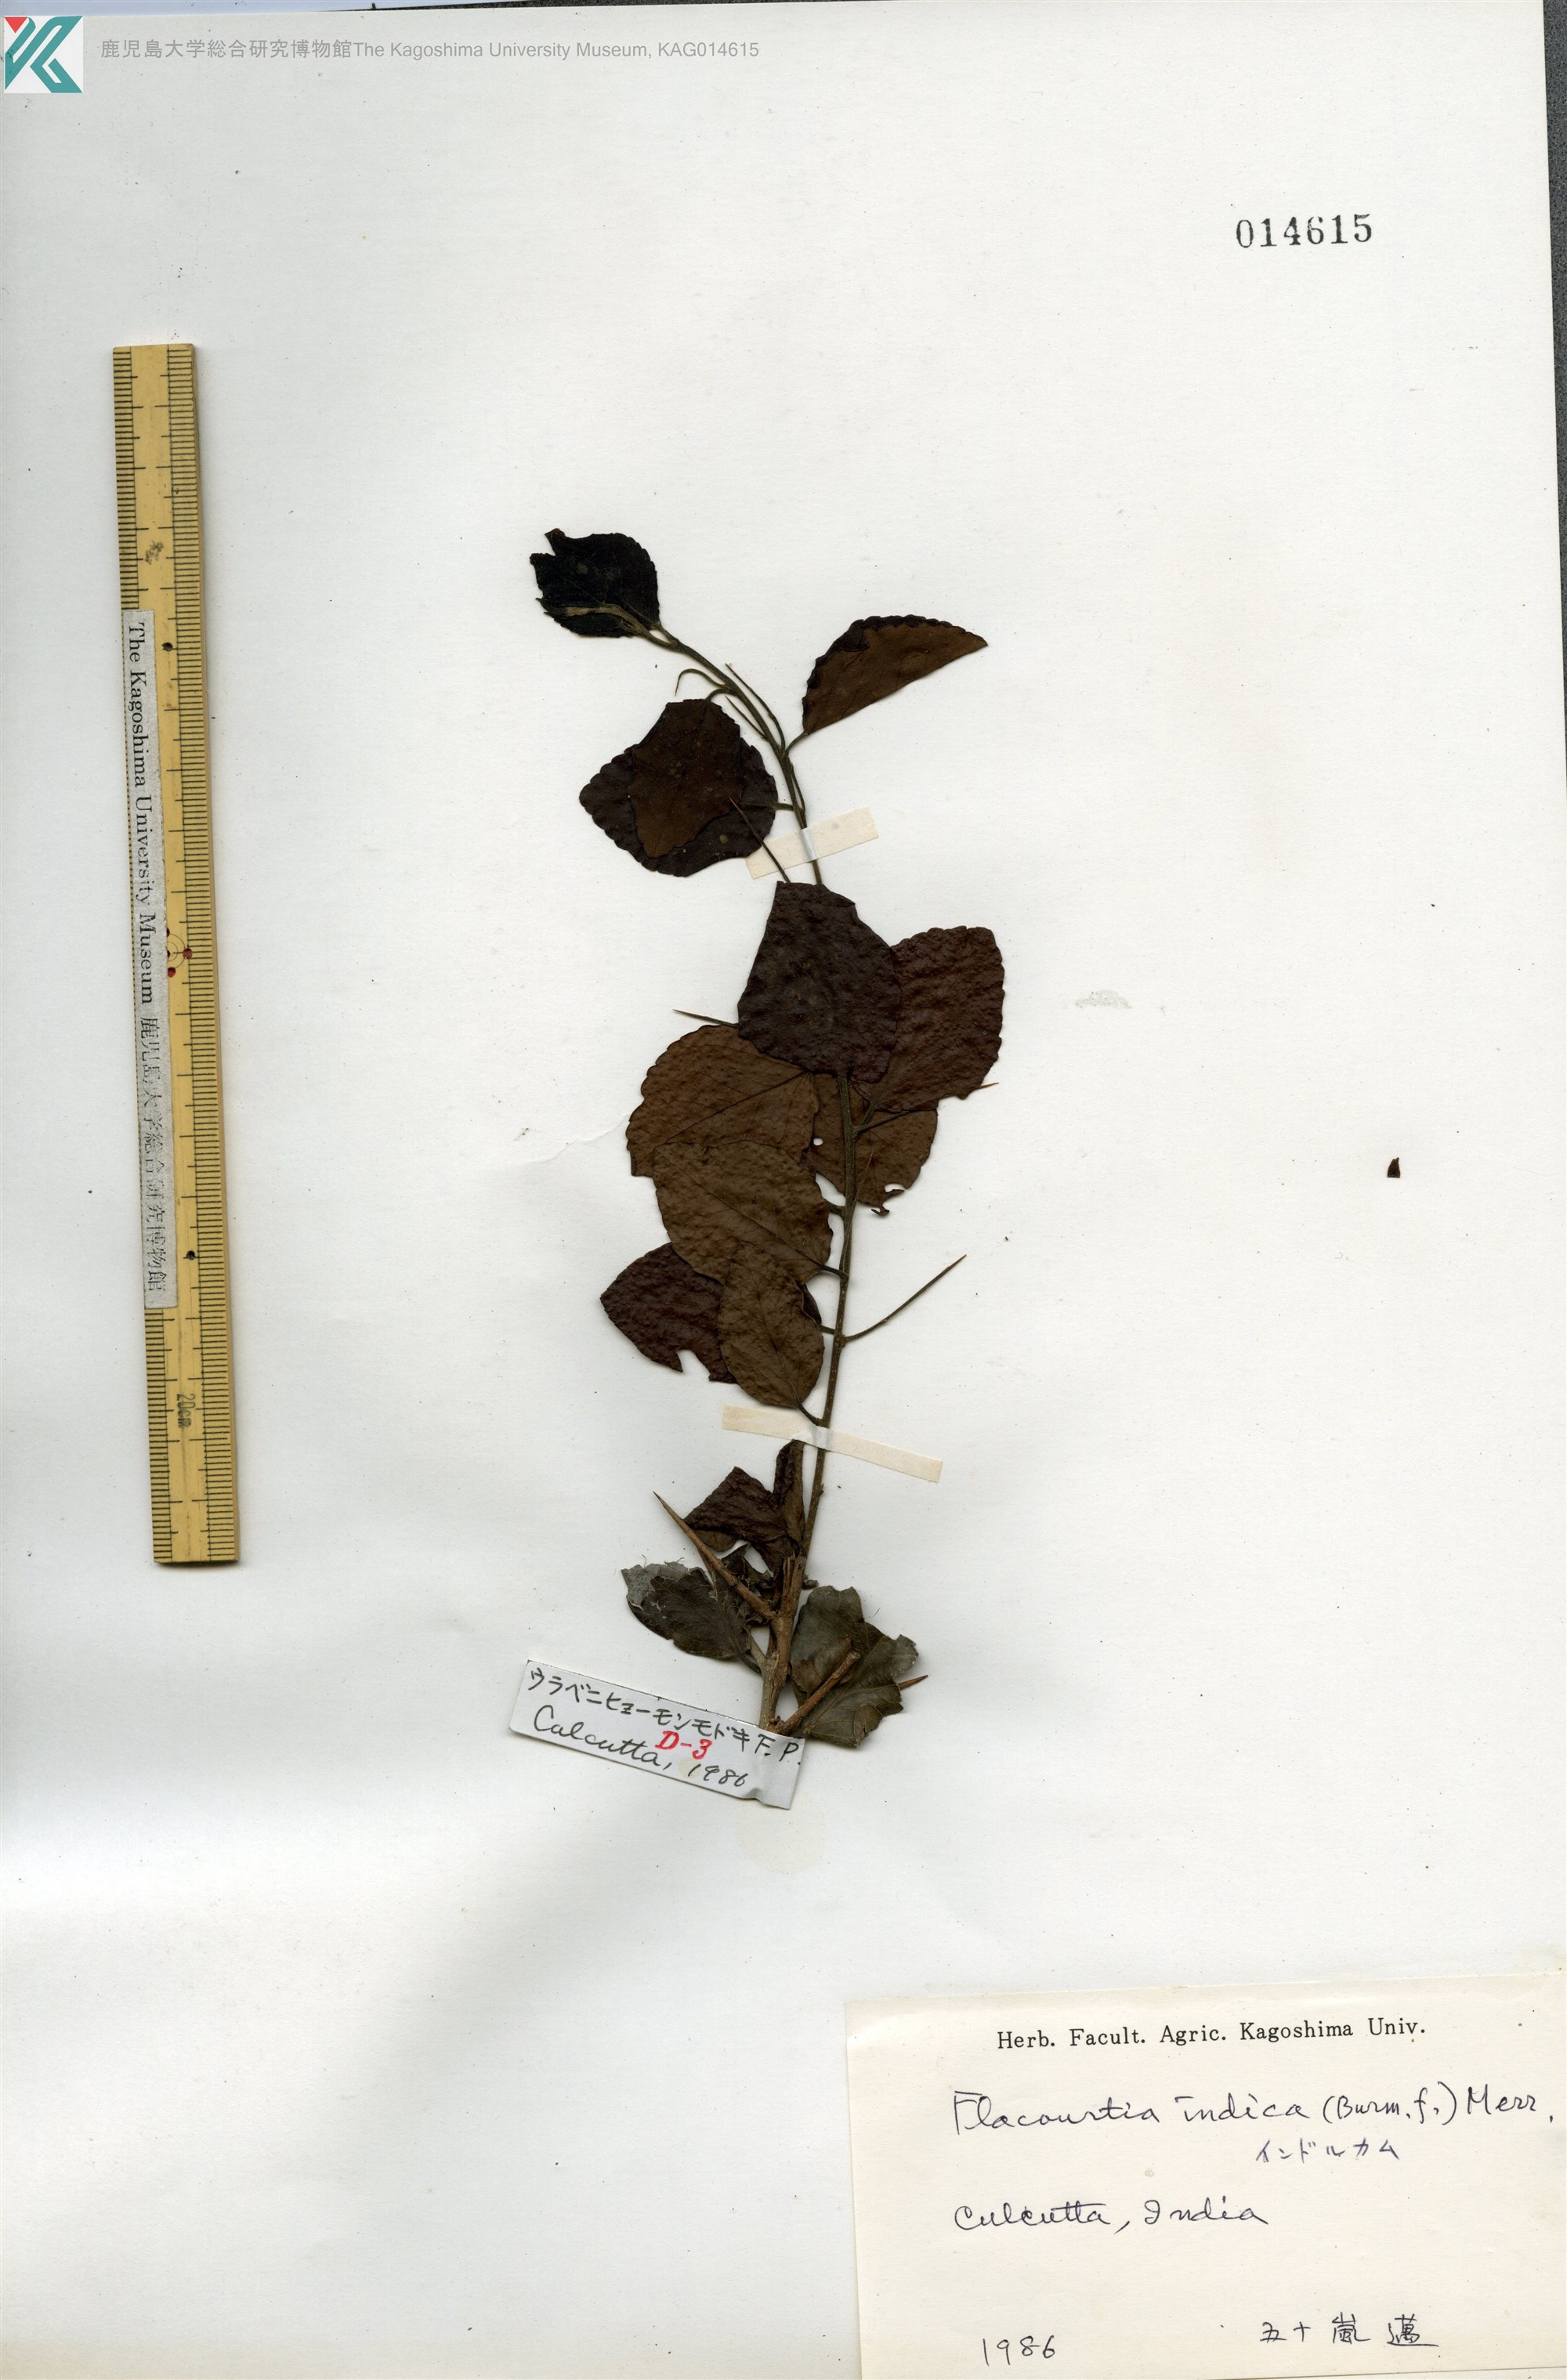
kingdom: Plantae
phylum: Tracheophyta
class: Magnoliopsida
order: Malpighiales
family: Salicaceae
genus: Flacourtia
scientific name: Flacourtia indica
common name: Governor's plum
